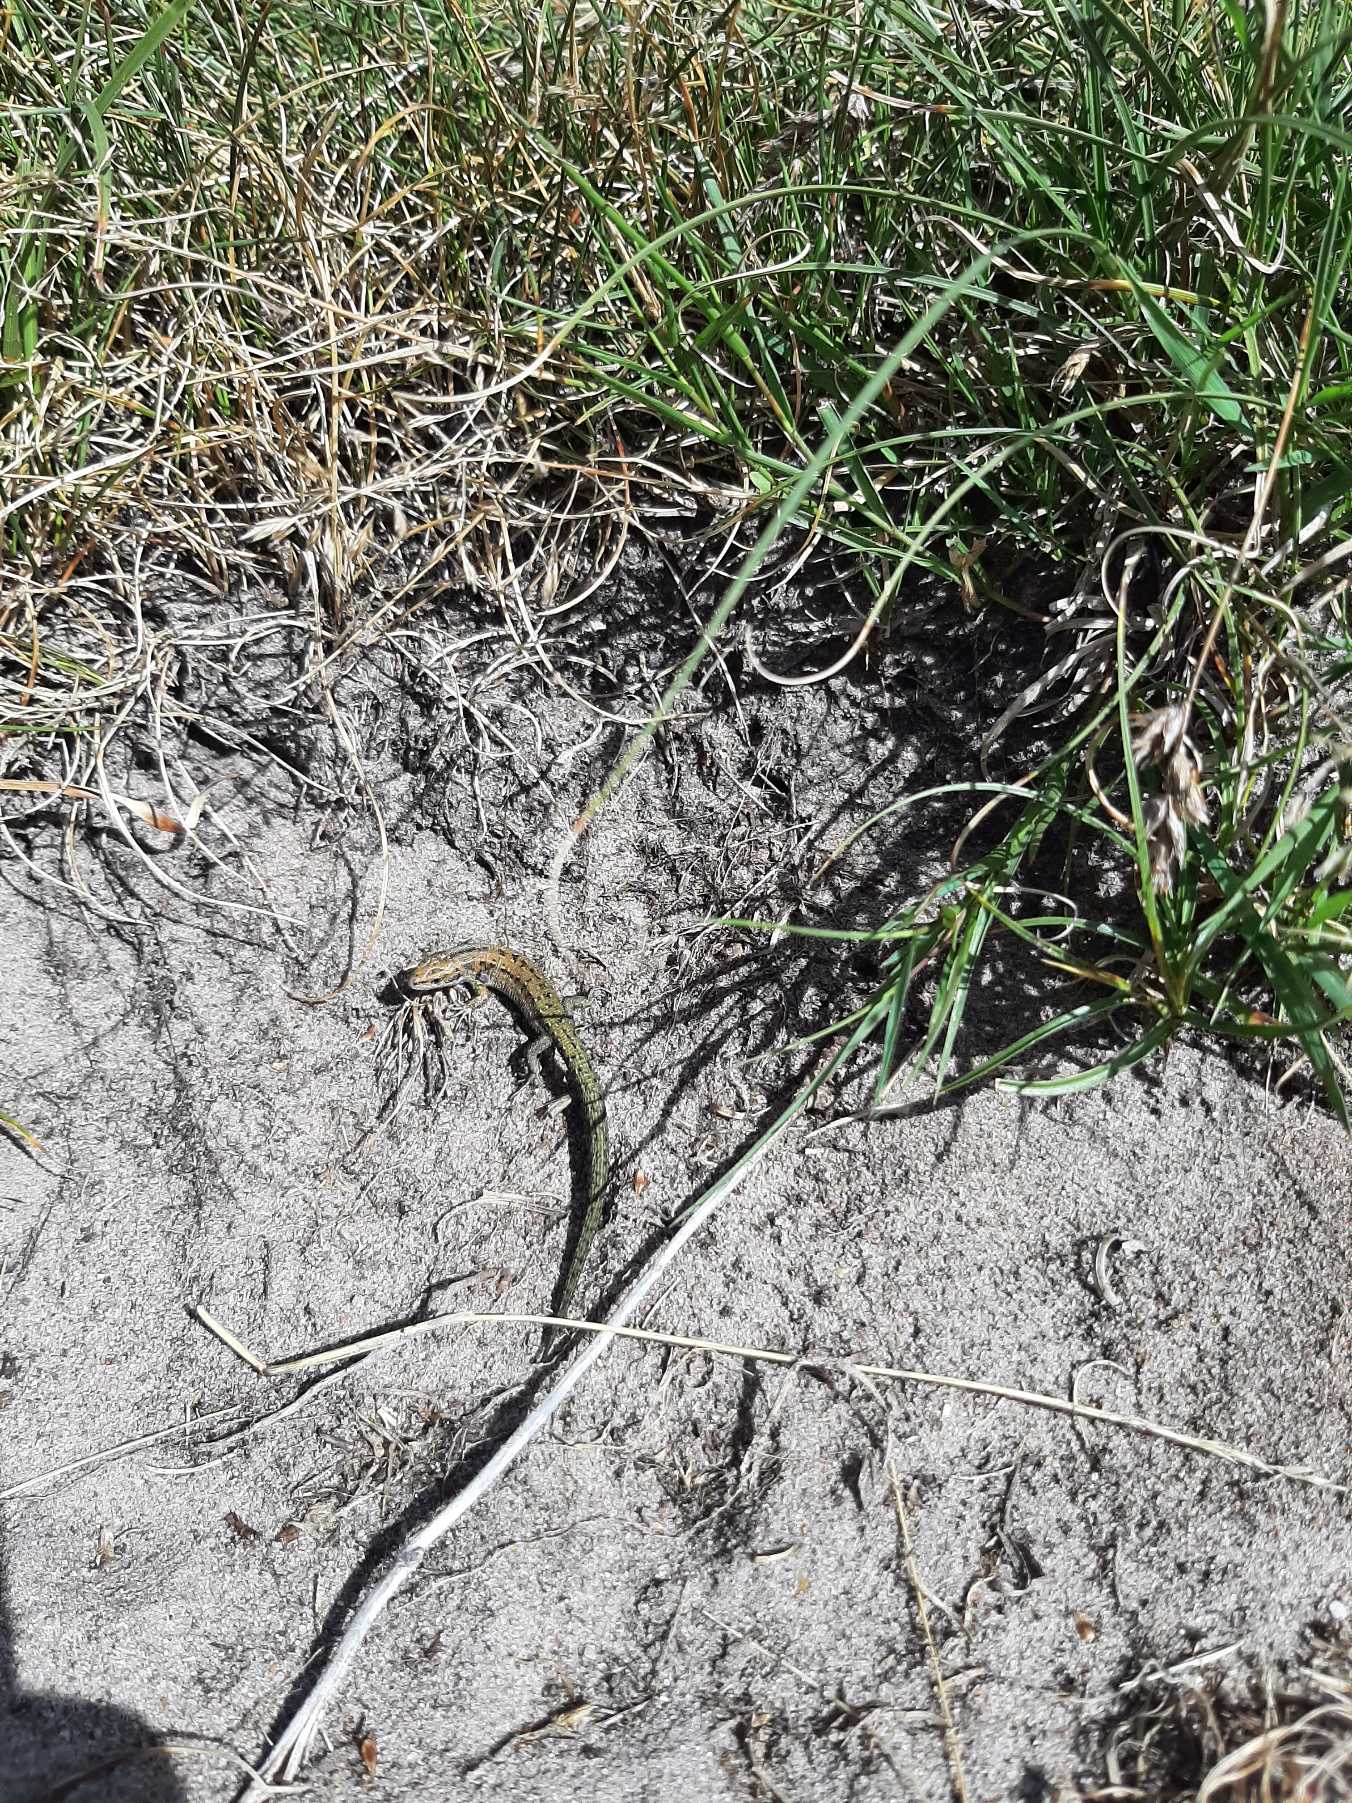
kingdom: Animalia
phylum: Chordata
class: Squamata
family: Lacertidae
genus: Zootoca
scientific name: Zootoca vivipara
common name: Skovfirben
